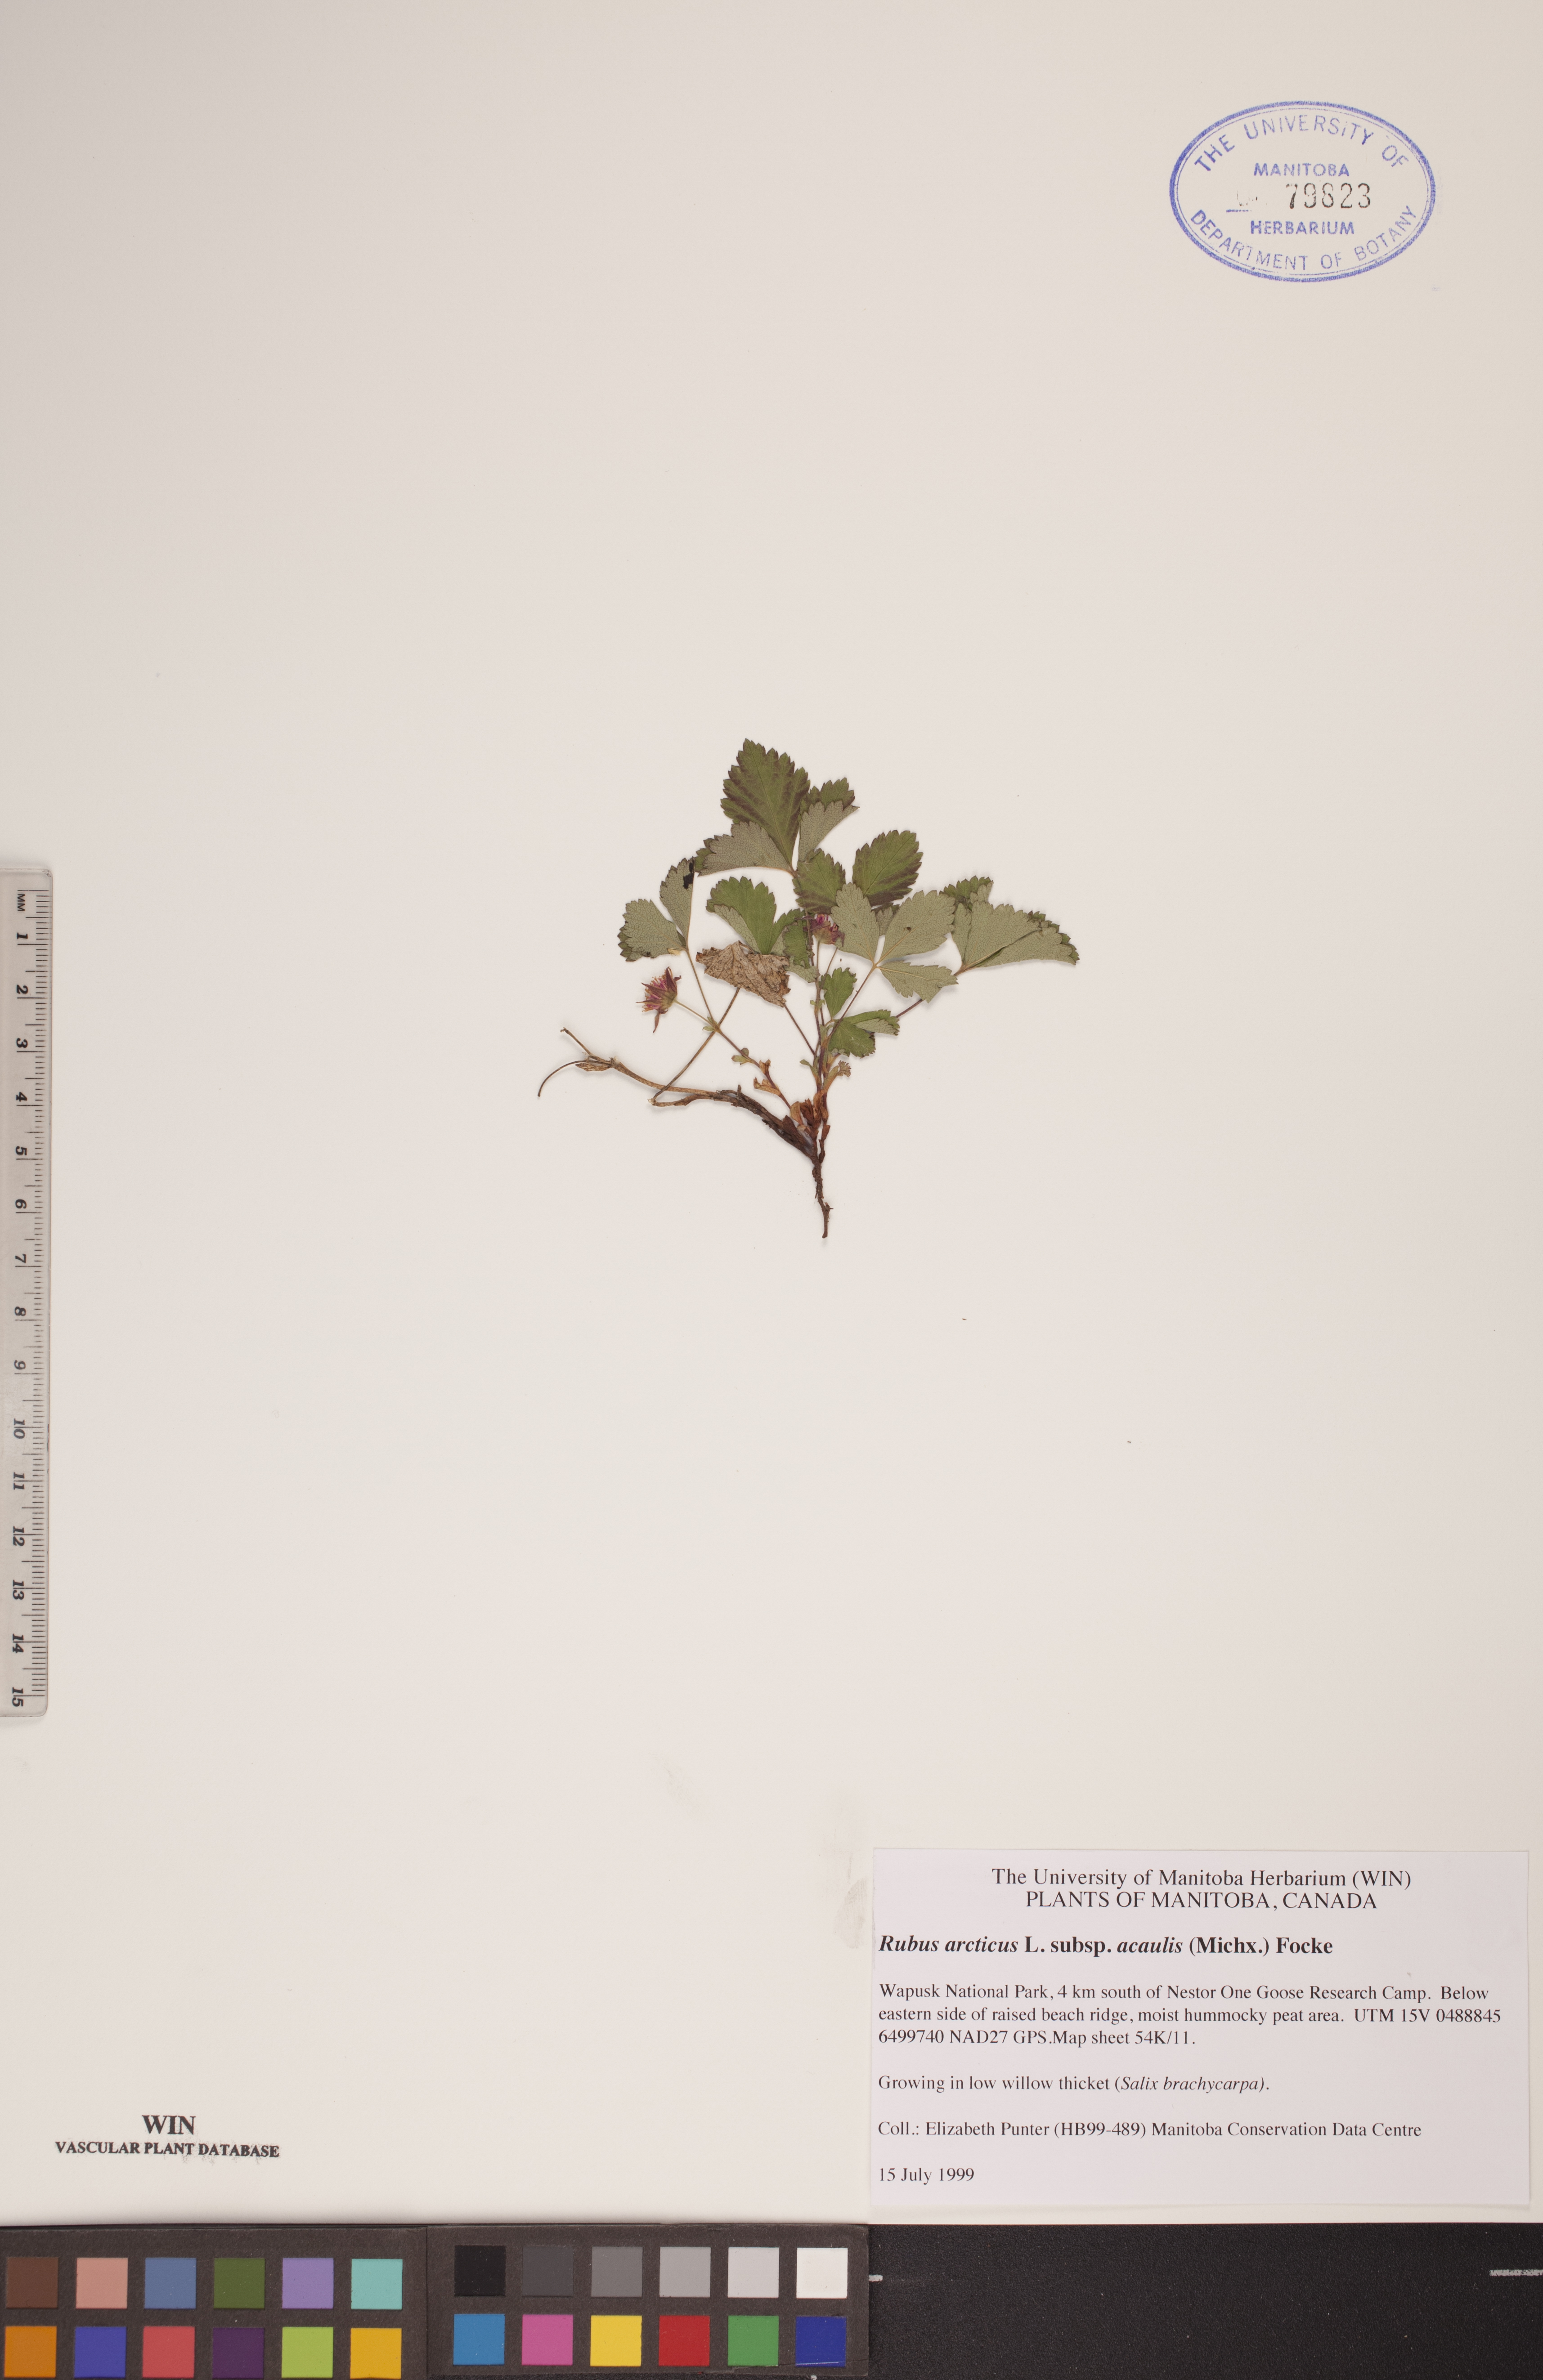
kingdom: Plantae
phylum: Tracheophyta
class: Magnoliopsida
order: Rosales
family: Rosaceae
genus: Rubus
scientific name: Rubus arcticus
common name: Arctic bramble
